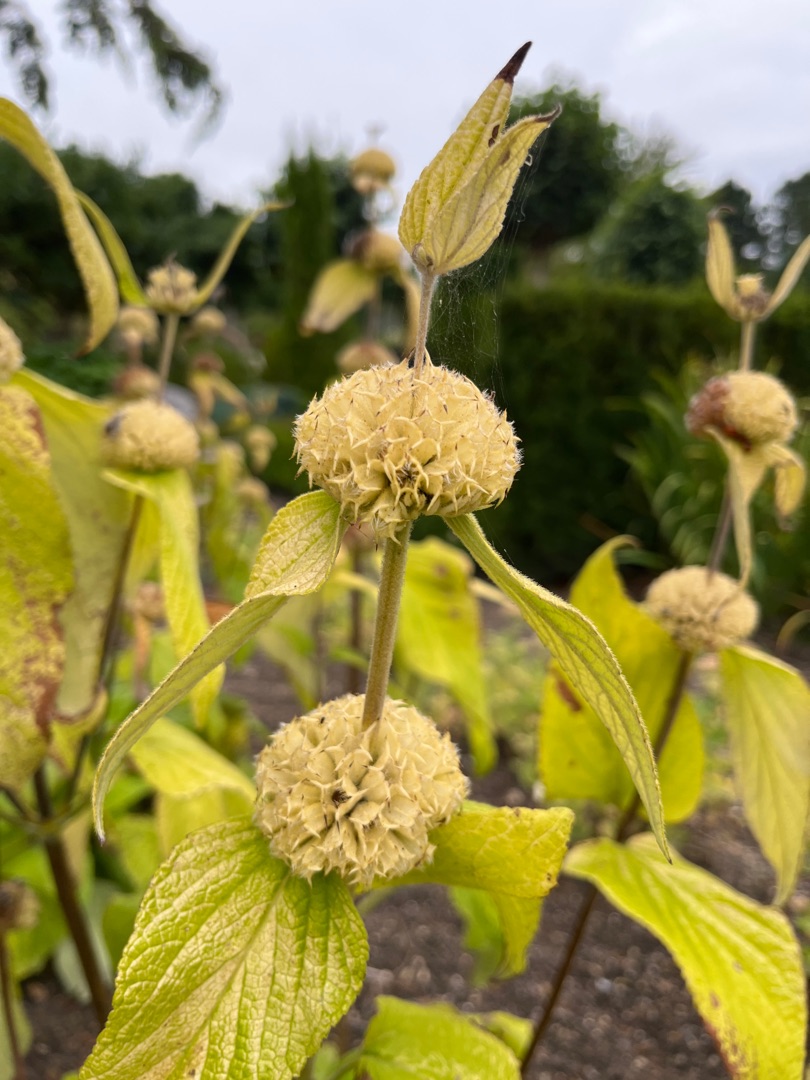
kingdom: Plantae
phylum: Tracheophyta
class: Magnoliopsida
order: Lamiales
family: Lamiaceae
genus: Phlomis
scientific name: Phlomis russeliana
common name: Løvehale
